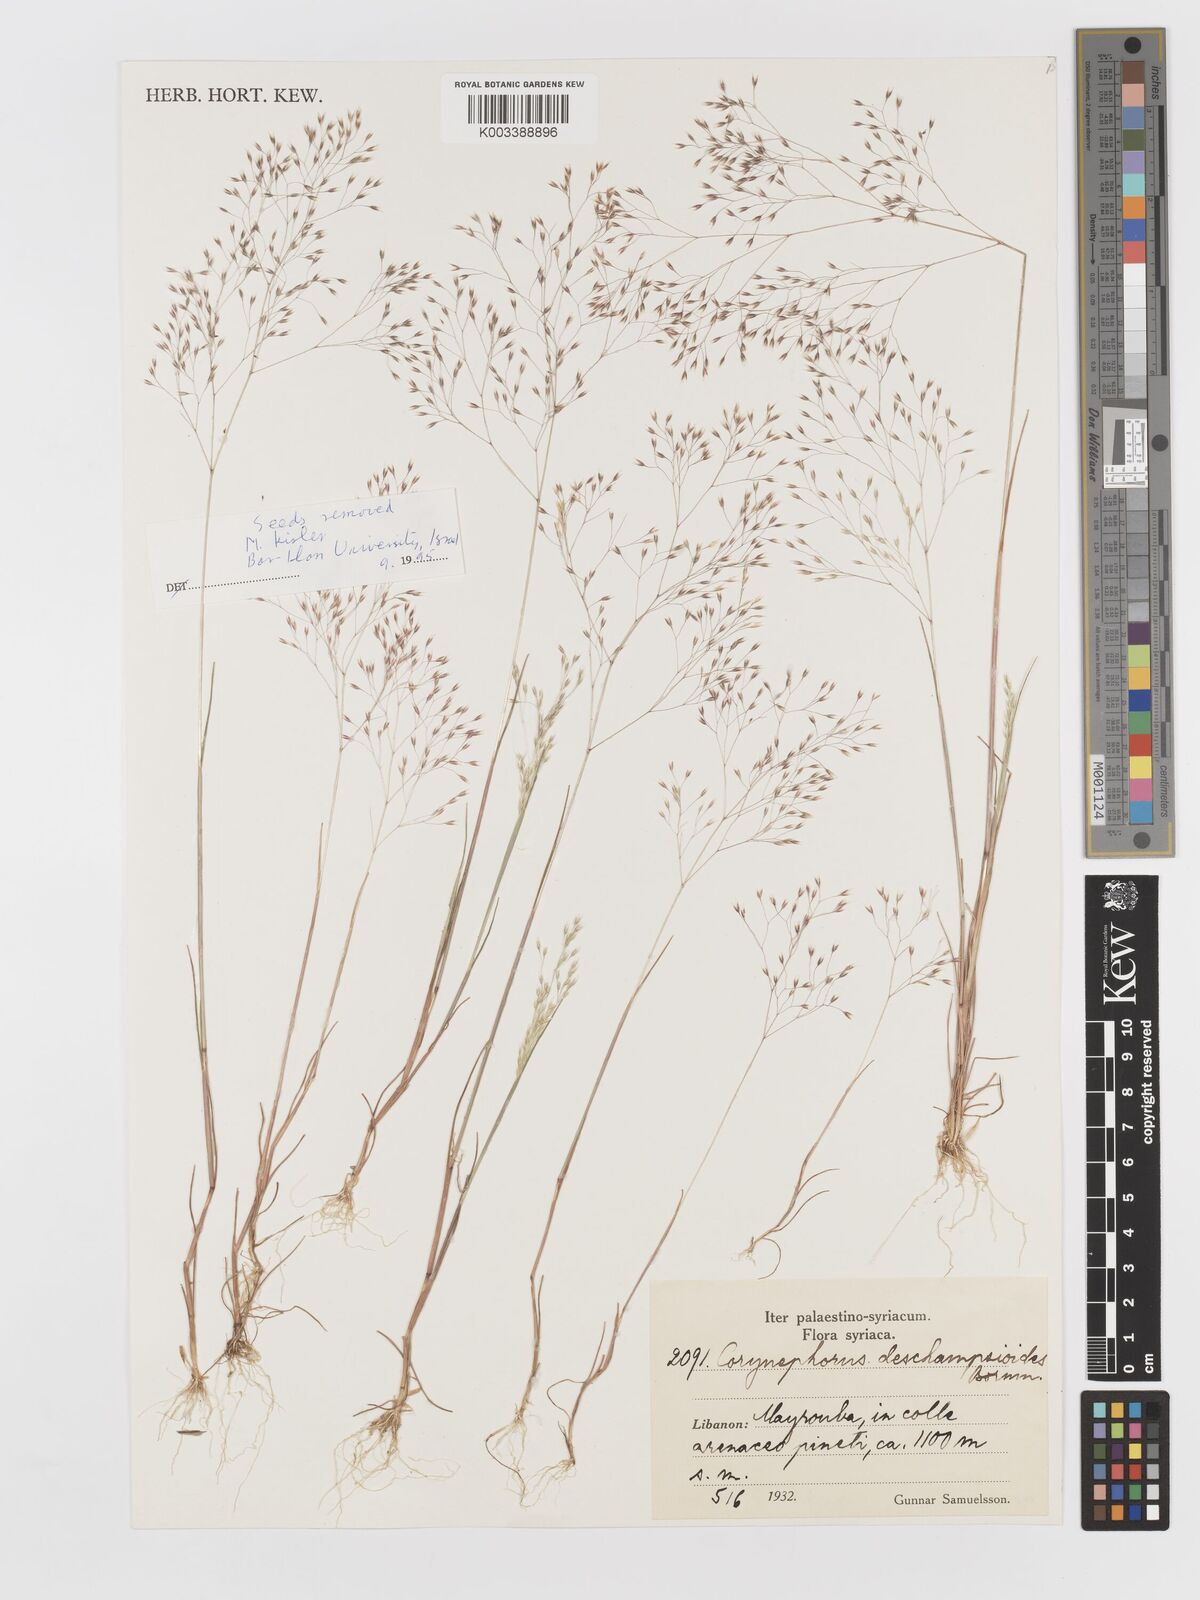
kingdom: Plantae
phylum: Tracheophyta
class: Liliopsida
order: Poales
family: Poaceae
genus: Corynephorus
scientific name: Corynephorus deschampsioides
